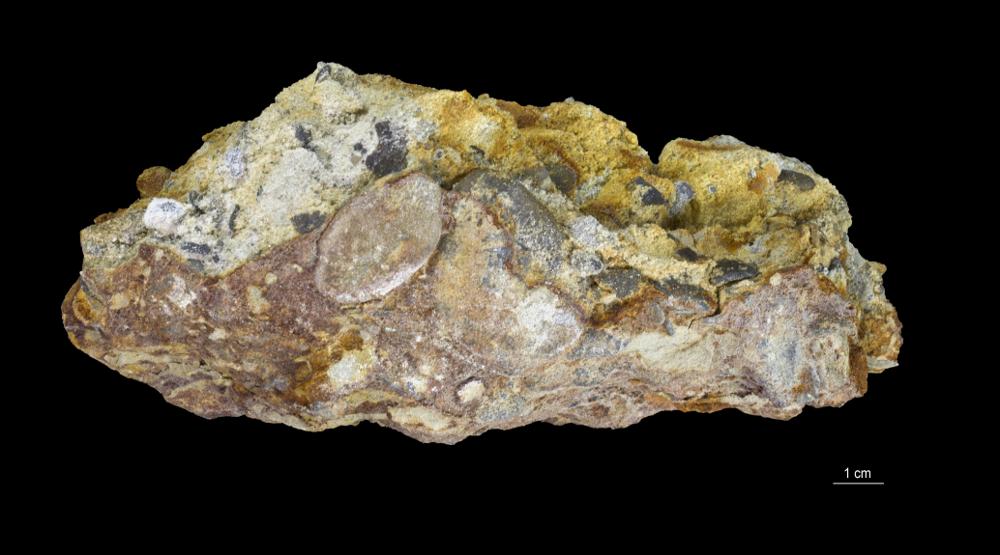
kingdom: Animalia
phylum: Brachiopoda
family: Paterinidae
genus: Mickwitzia
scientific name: Mickwitzia
